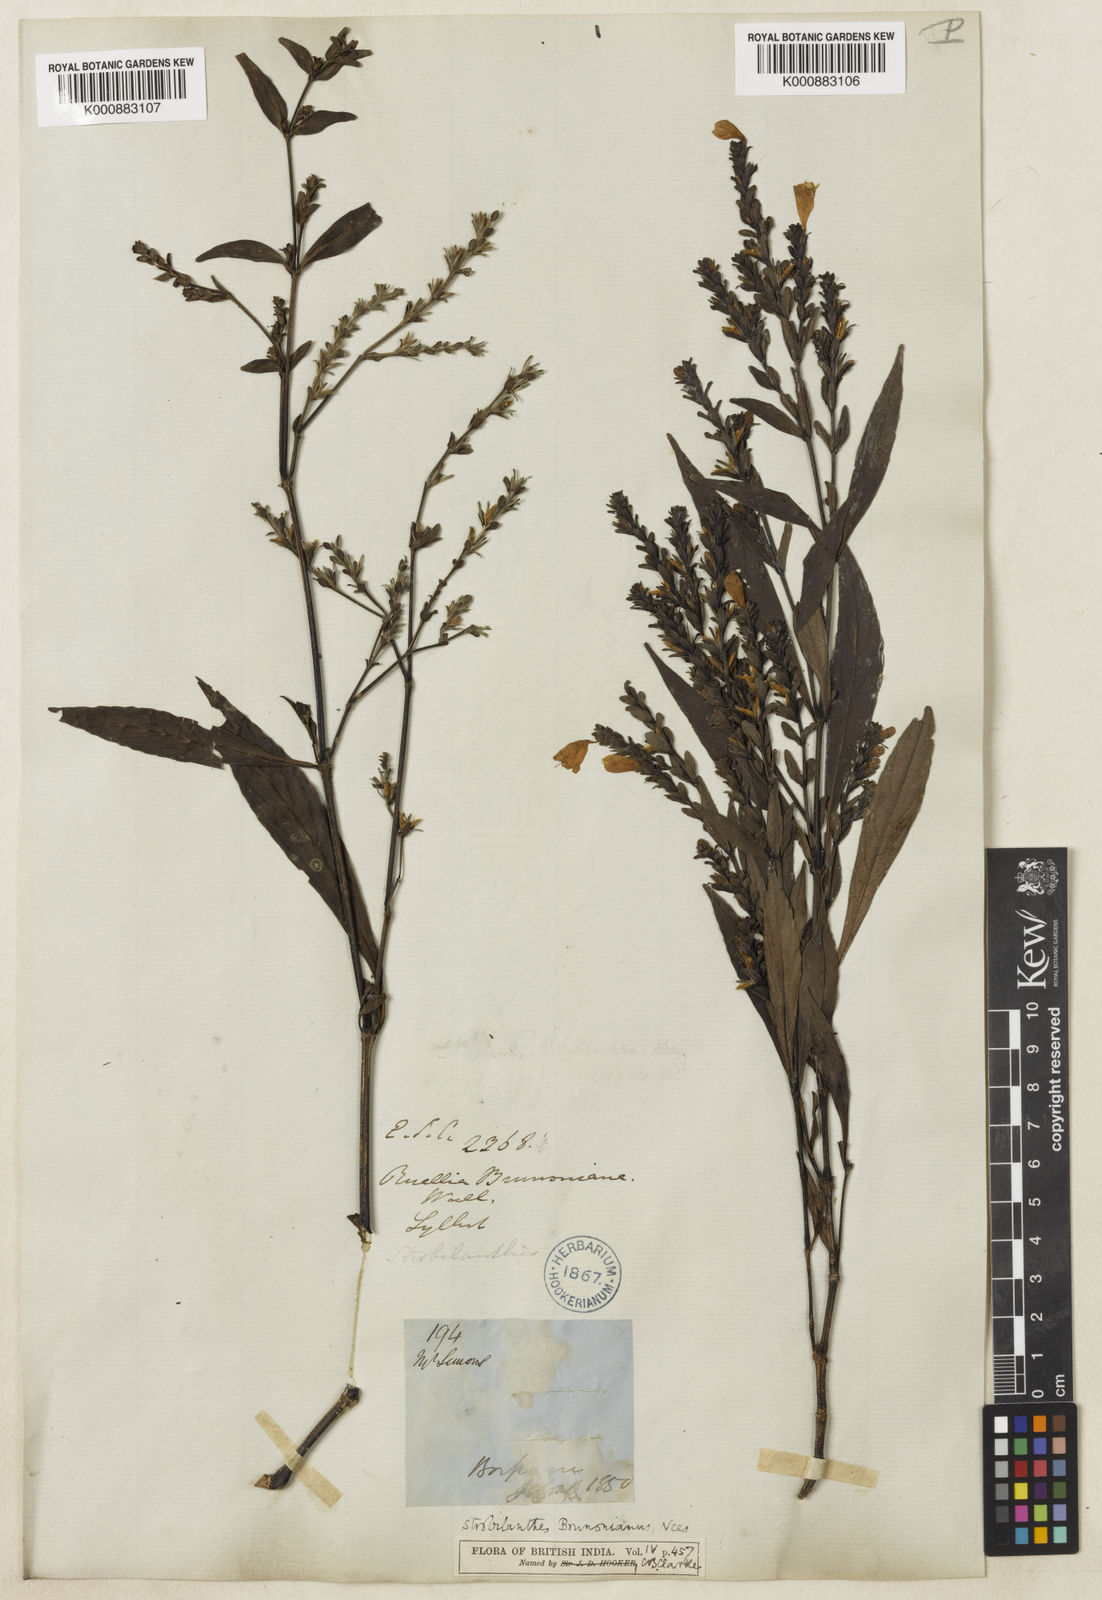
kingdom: Plantae
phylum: Tracheophyta
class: Magnoliopsida
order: Lamiales
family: Acanthaceae
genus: Strobilanthes
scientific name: Strobilanthes brunoniana
